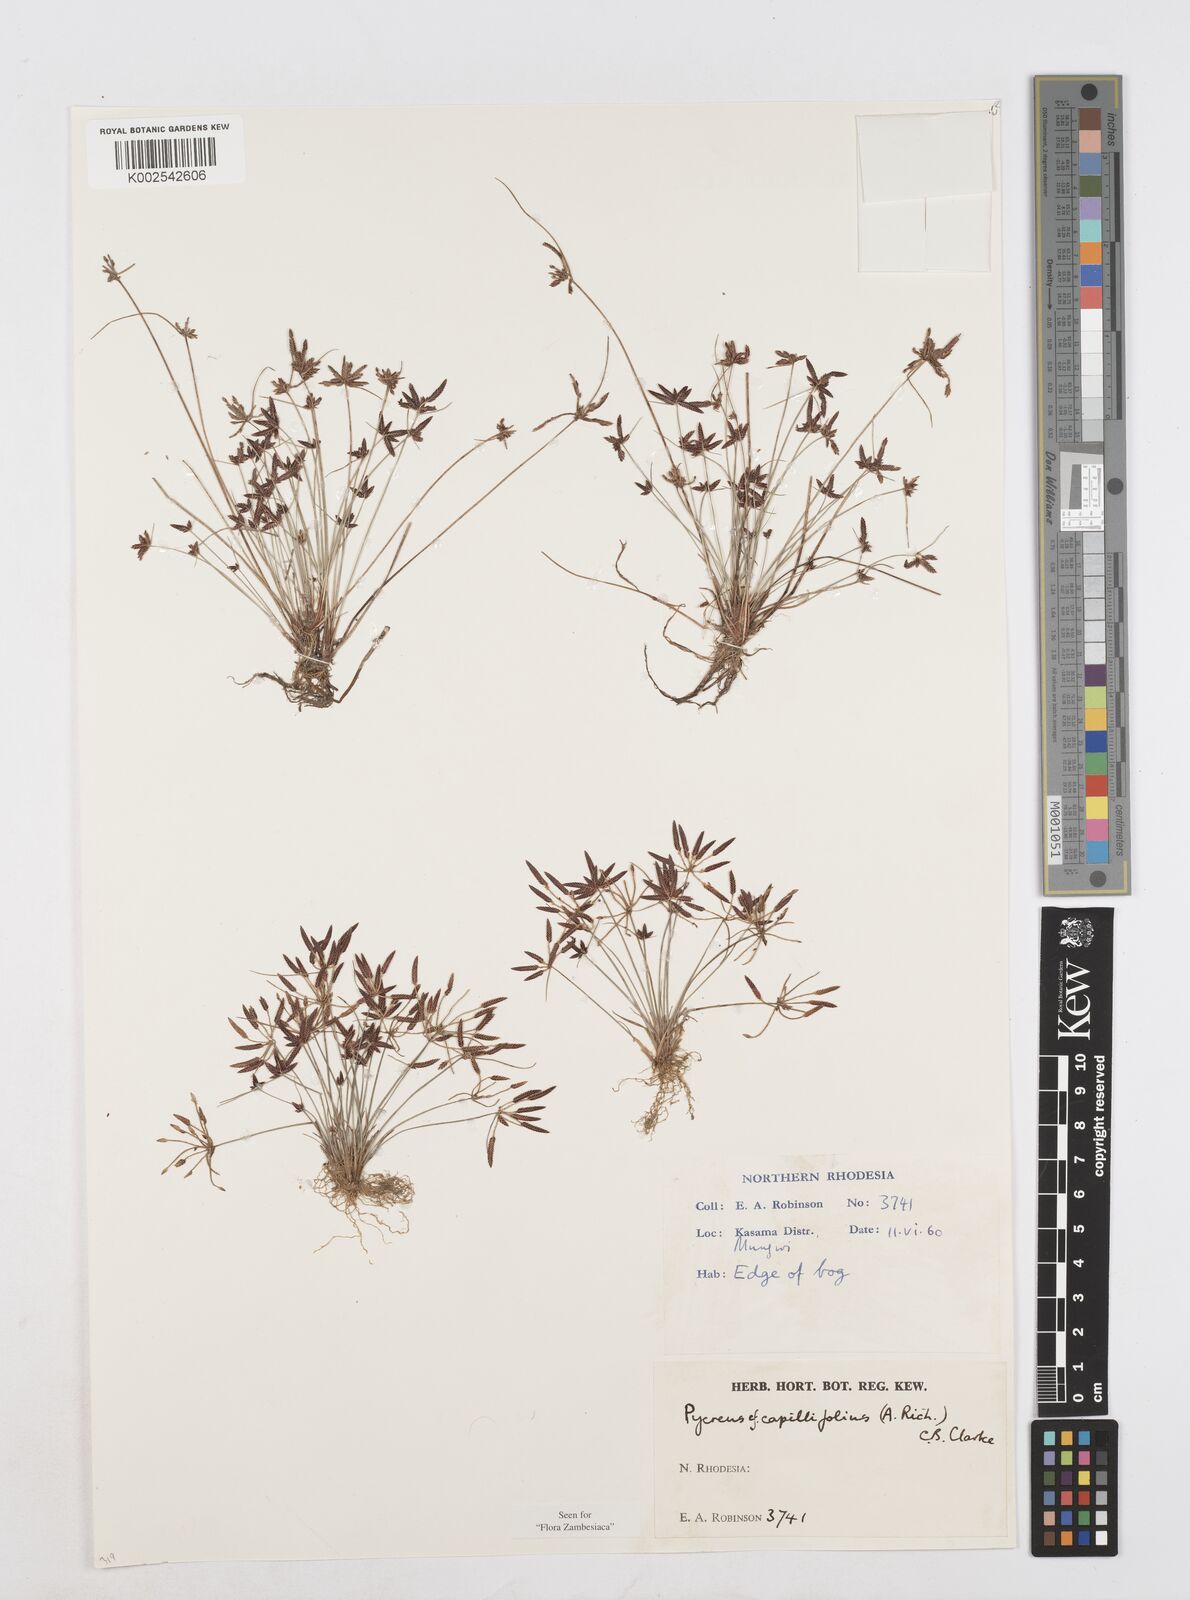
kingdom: Plantae
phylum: Tracheophyta
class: Liliopsida
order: Poales
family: Cyperaceae
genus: Cyperus
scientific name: Cyperus capillifolius
